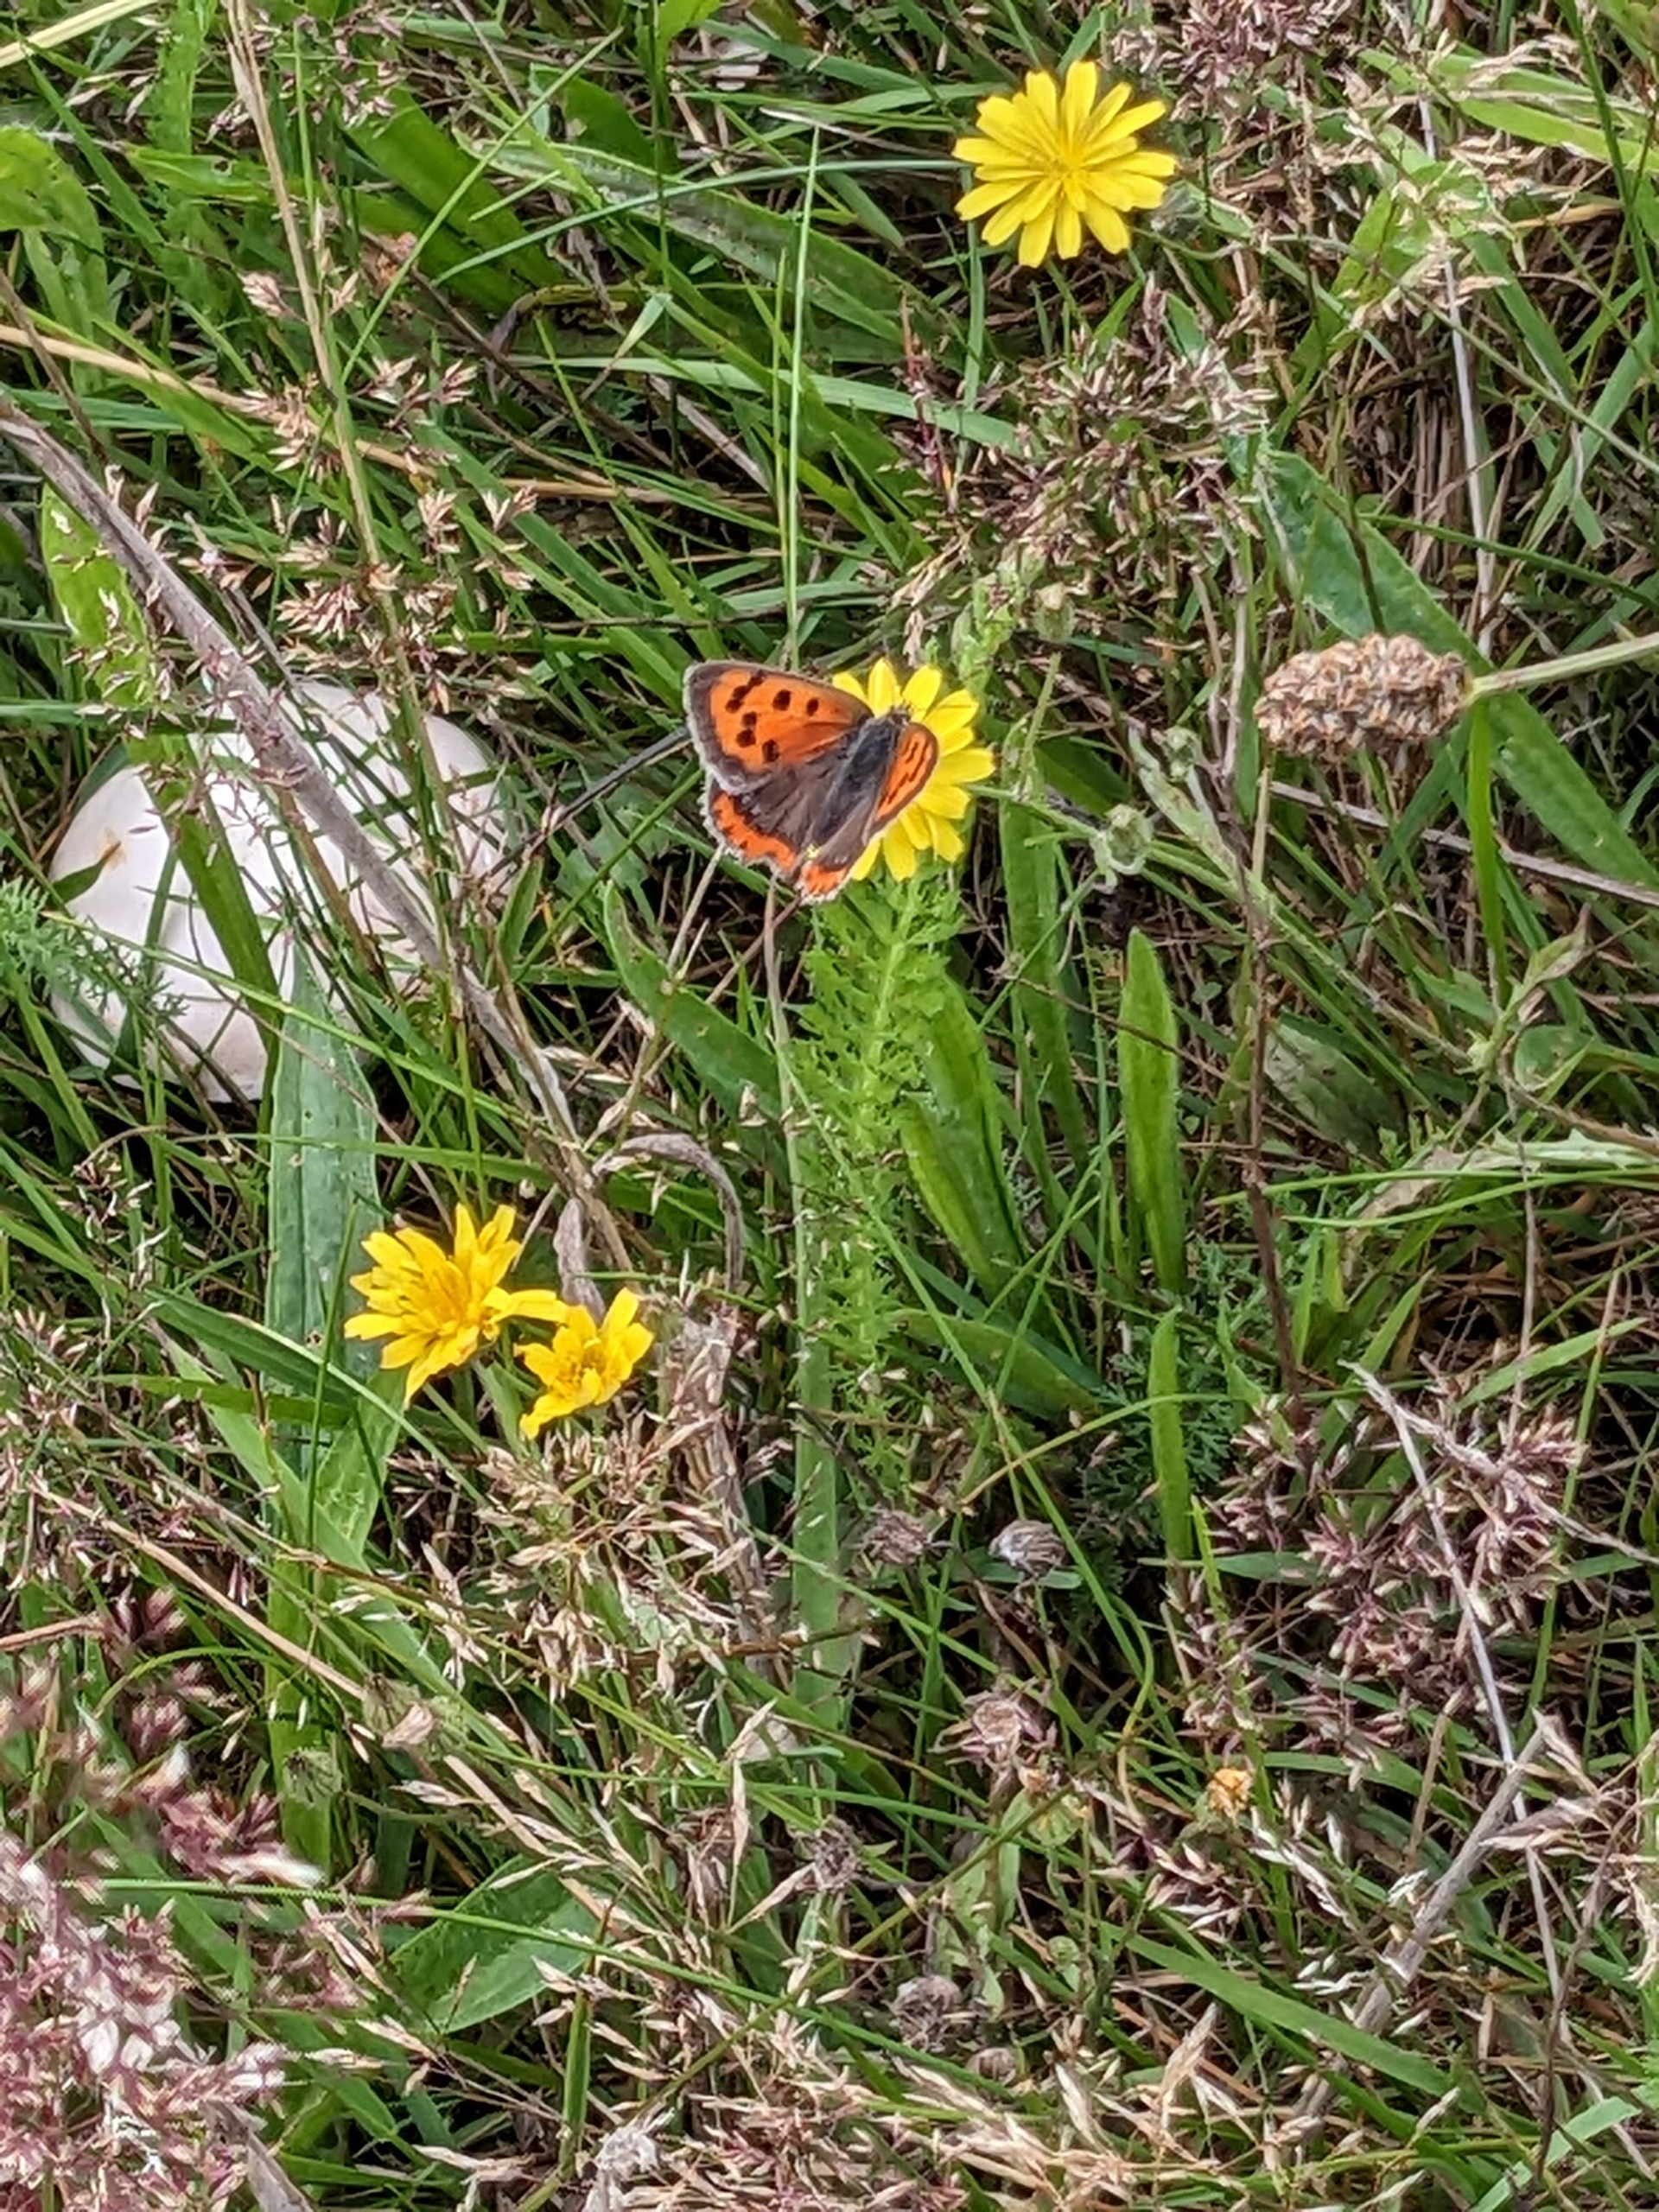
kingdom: Animalia
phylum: Arthropoda
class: Insecta
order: Lepidoptera
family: Lycaenidae
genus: Lycaena
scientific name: Lycaena phlaeas
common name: Lille ildfugl
